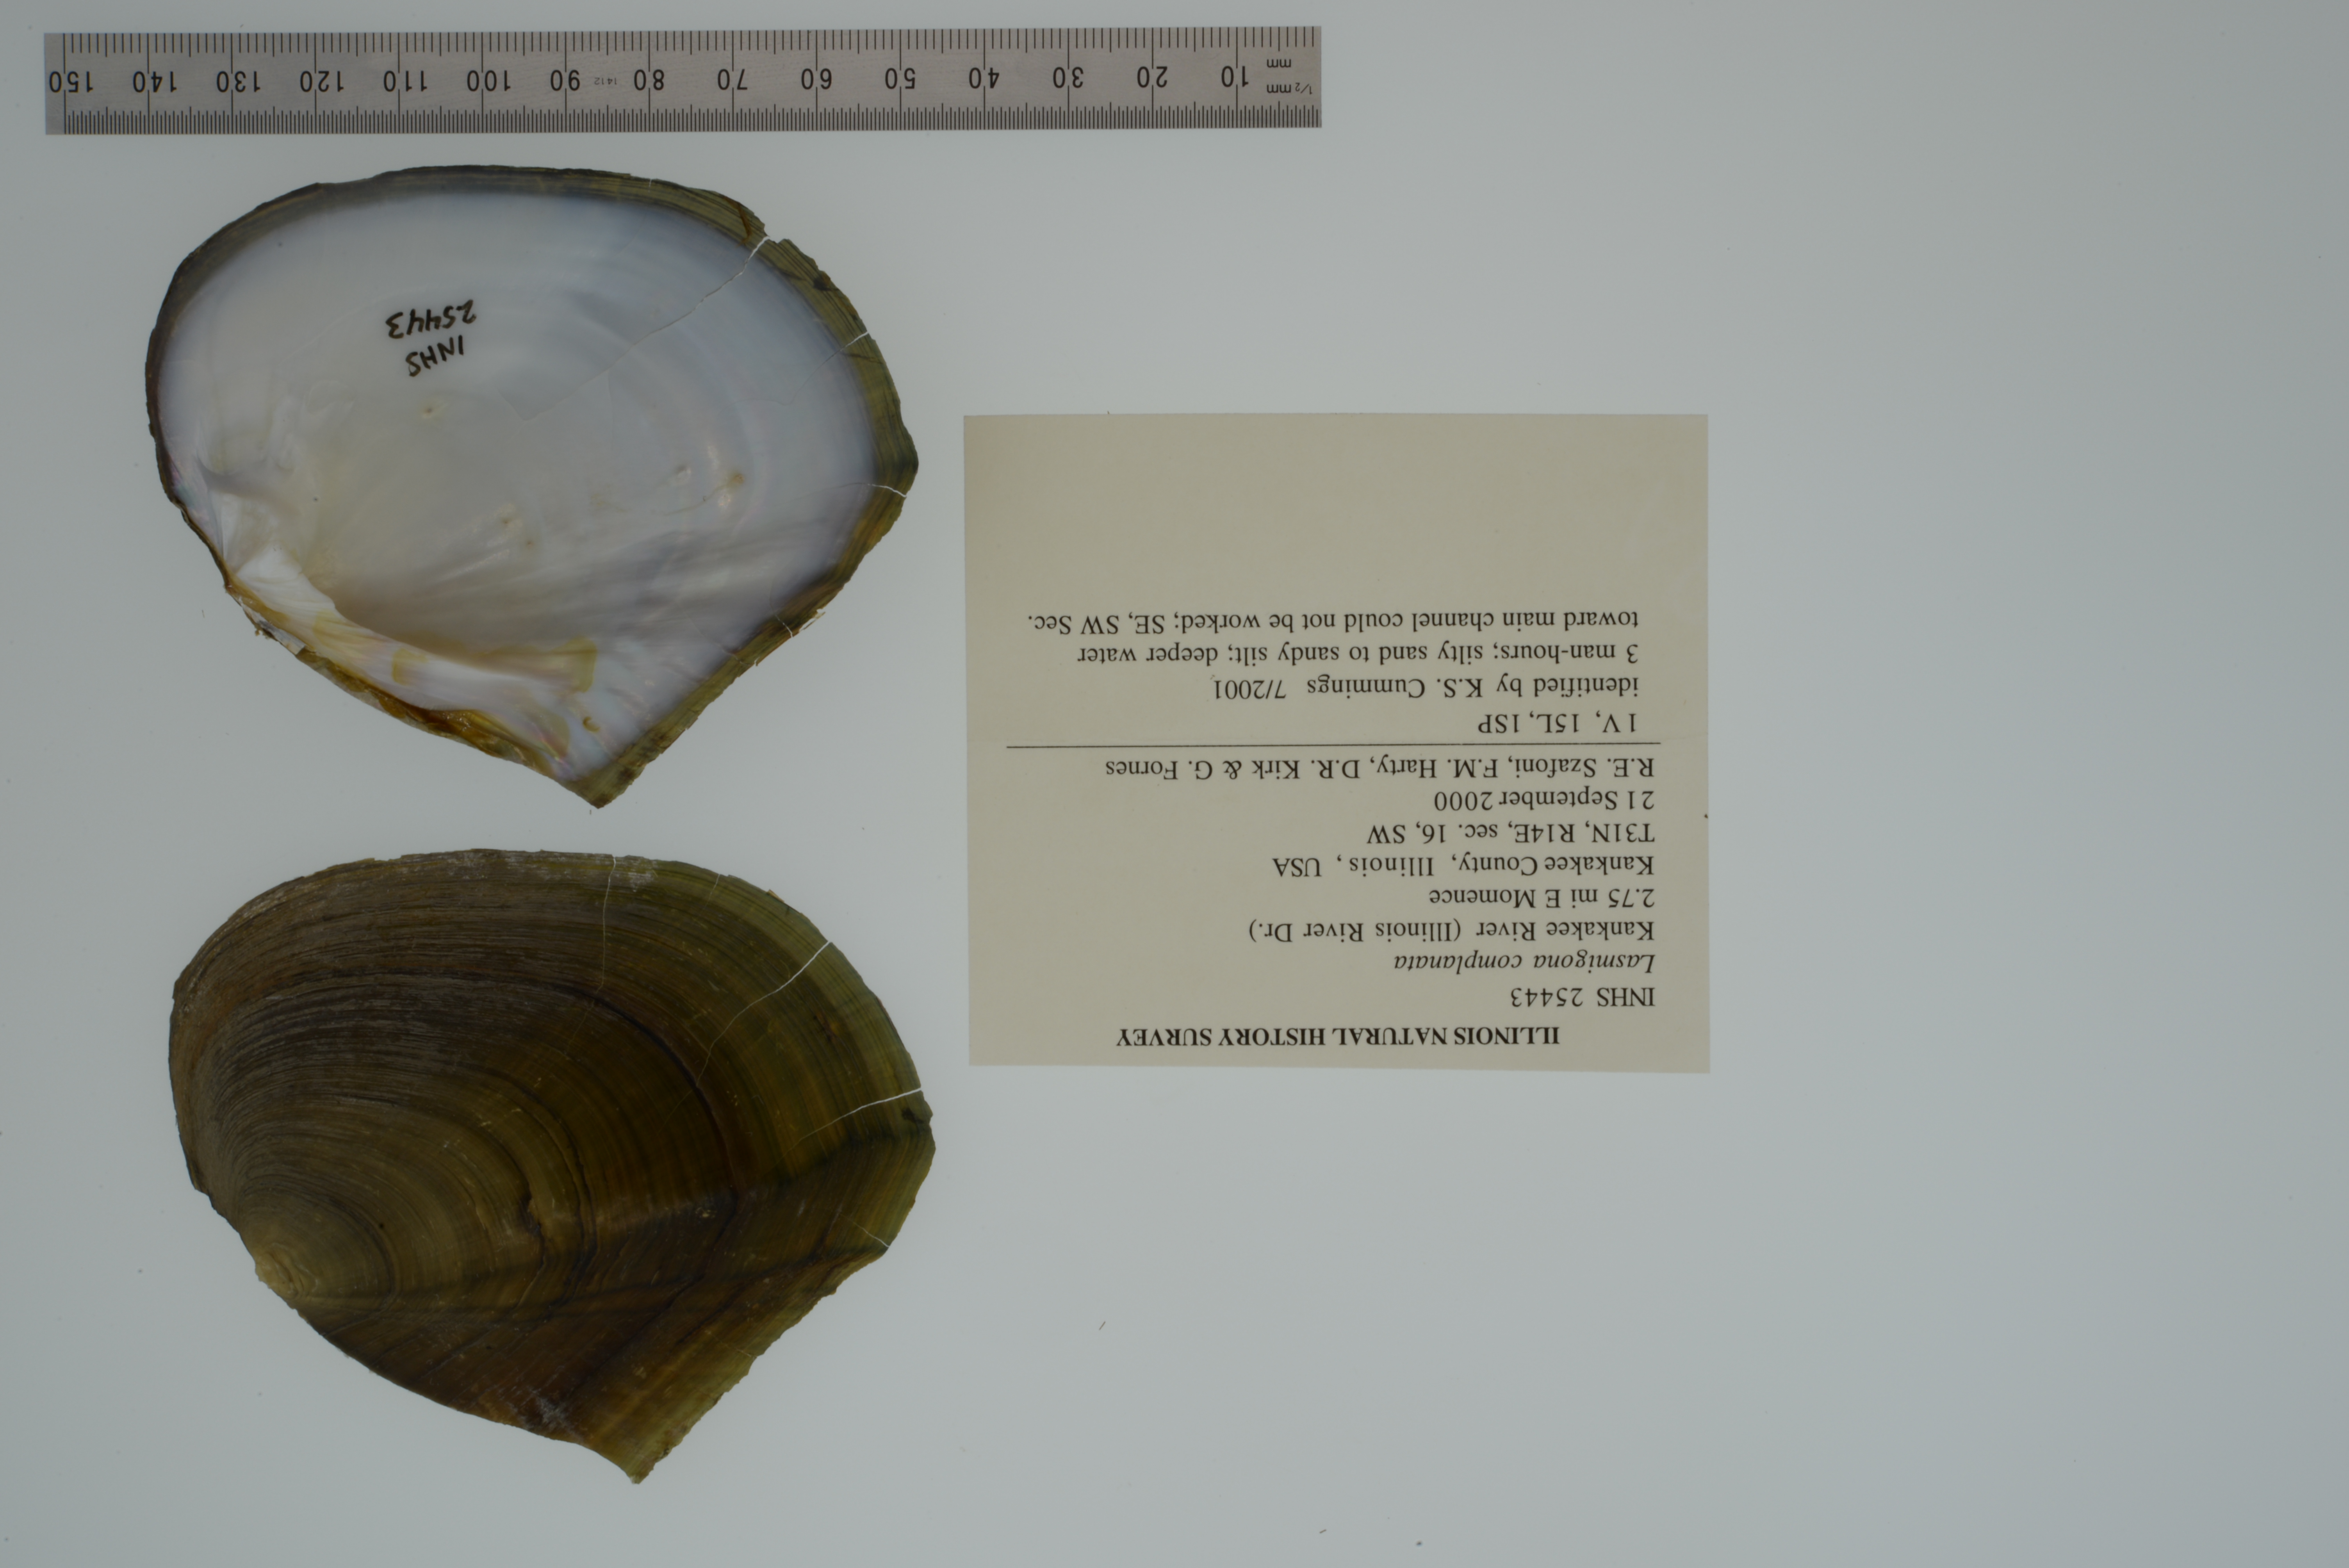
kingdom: Animalia
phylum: Mollusca
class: Bivalvia
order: Unionida
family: Unionidae
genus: Lasmigona
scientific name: Lasmigona complanata
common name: White heelsplitter
